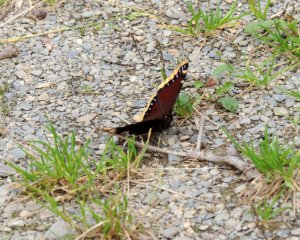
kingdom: Animalia
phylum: Arthropoda
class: Insecta
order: Lepidoptera
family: Nymphalidae
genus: Nymphalis
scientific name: Nymphalis antiopa
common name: Mourning Cloak
